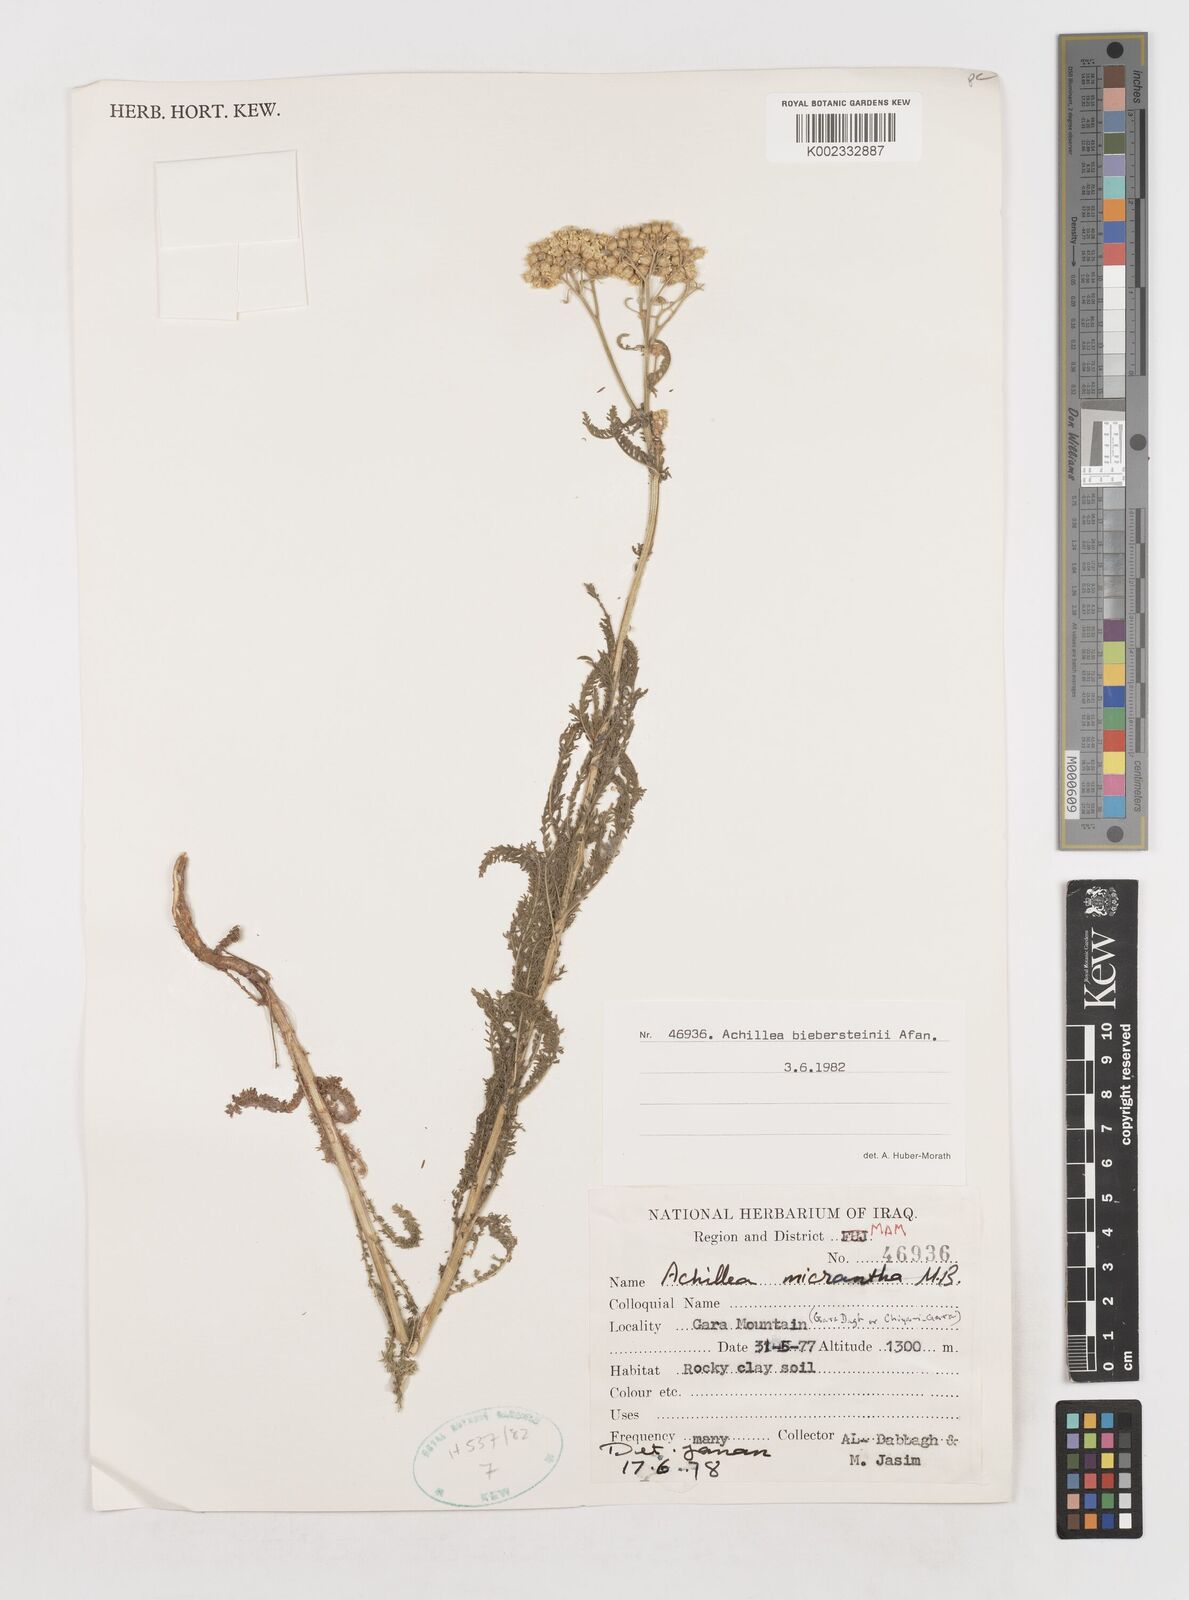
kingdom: Plantae
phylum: Tracheophyta
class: Magnoliopsida
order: Asterales
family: Asteraceae
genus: Achillea
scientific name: Achillea arabica
